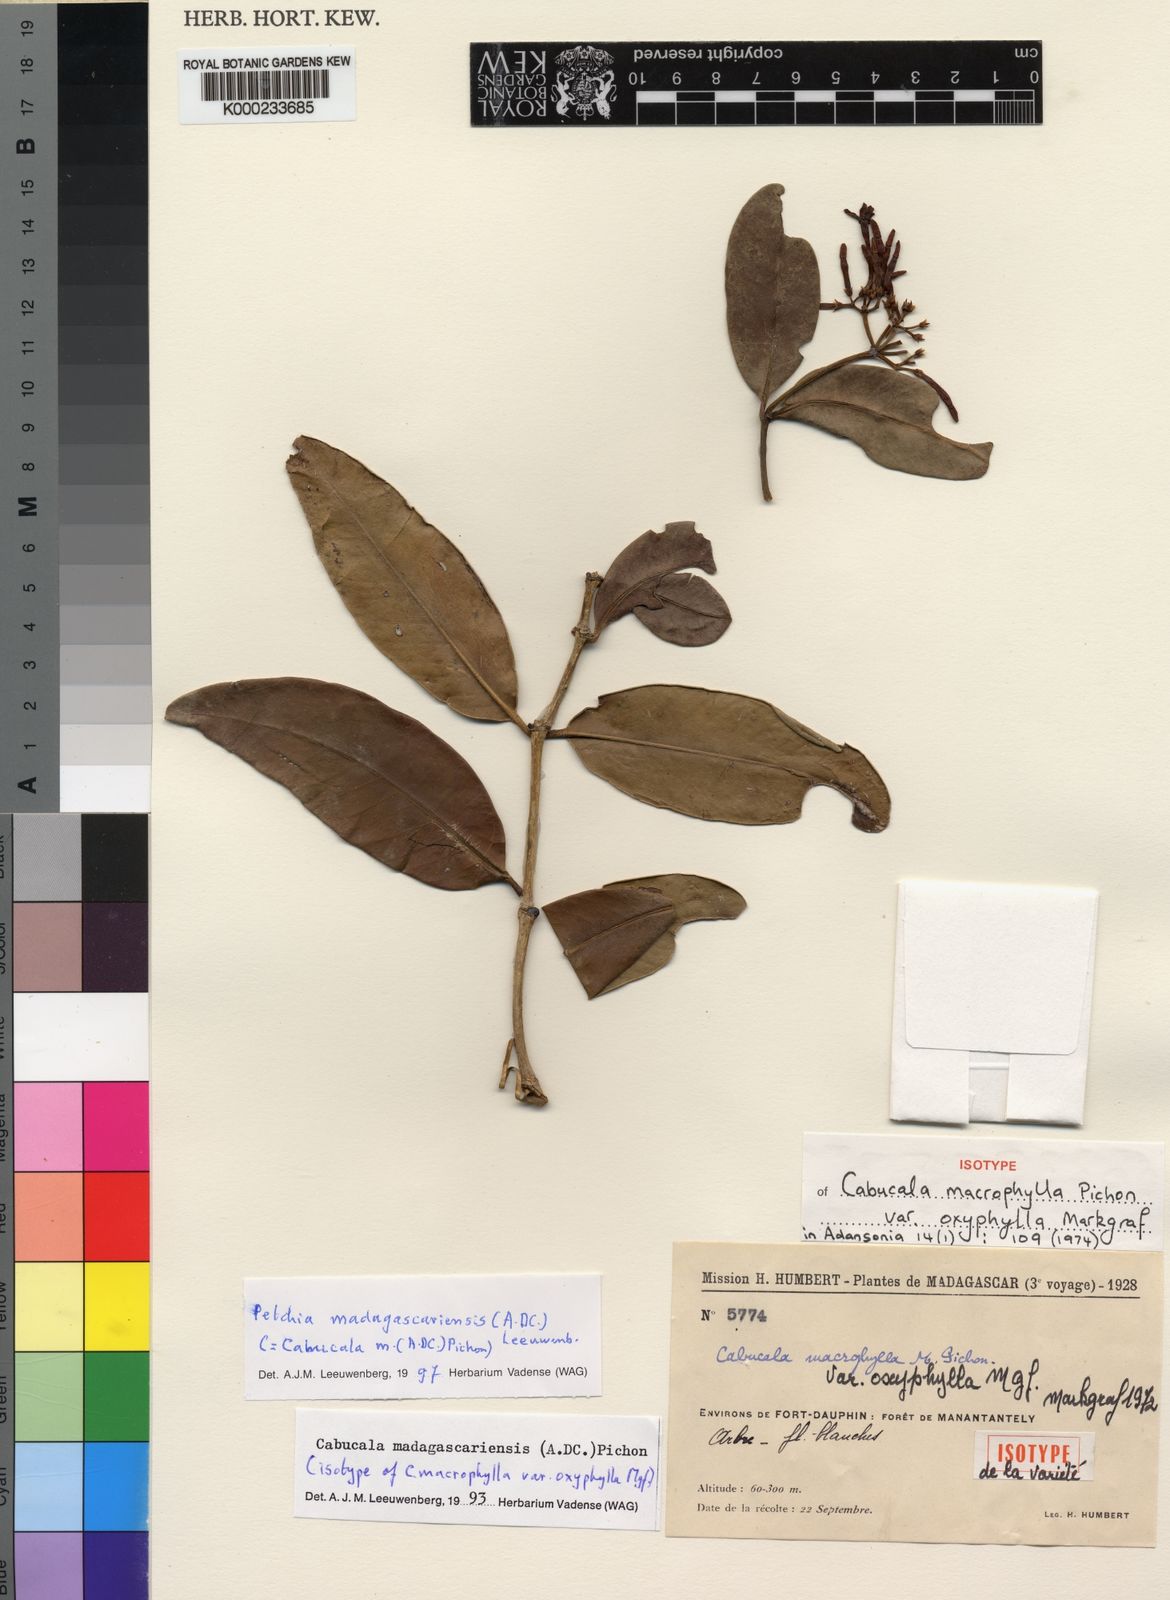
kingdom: Plantae
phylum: Tracheophyta
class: Magnoliopsida
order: Gentianales
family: Apocynaceae
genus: Petchia
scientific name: Petchia madagascariensis
